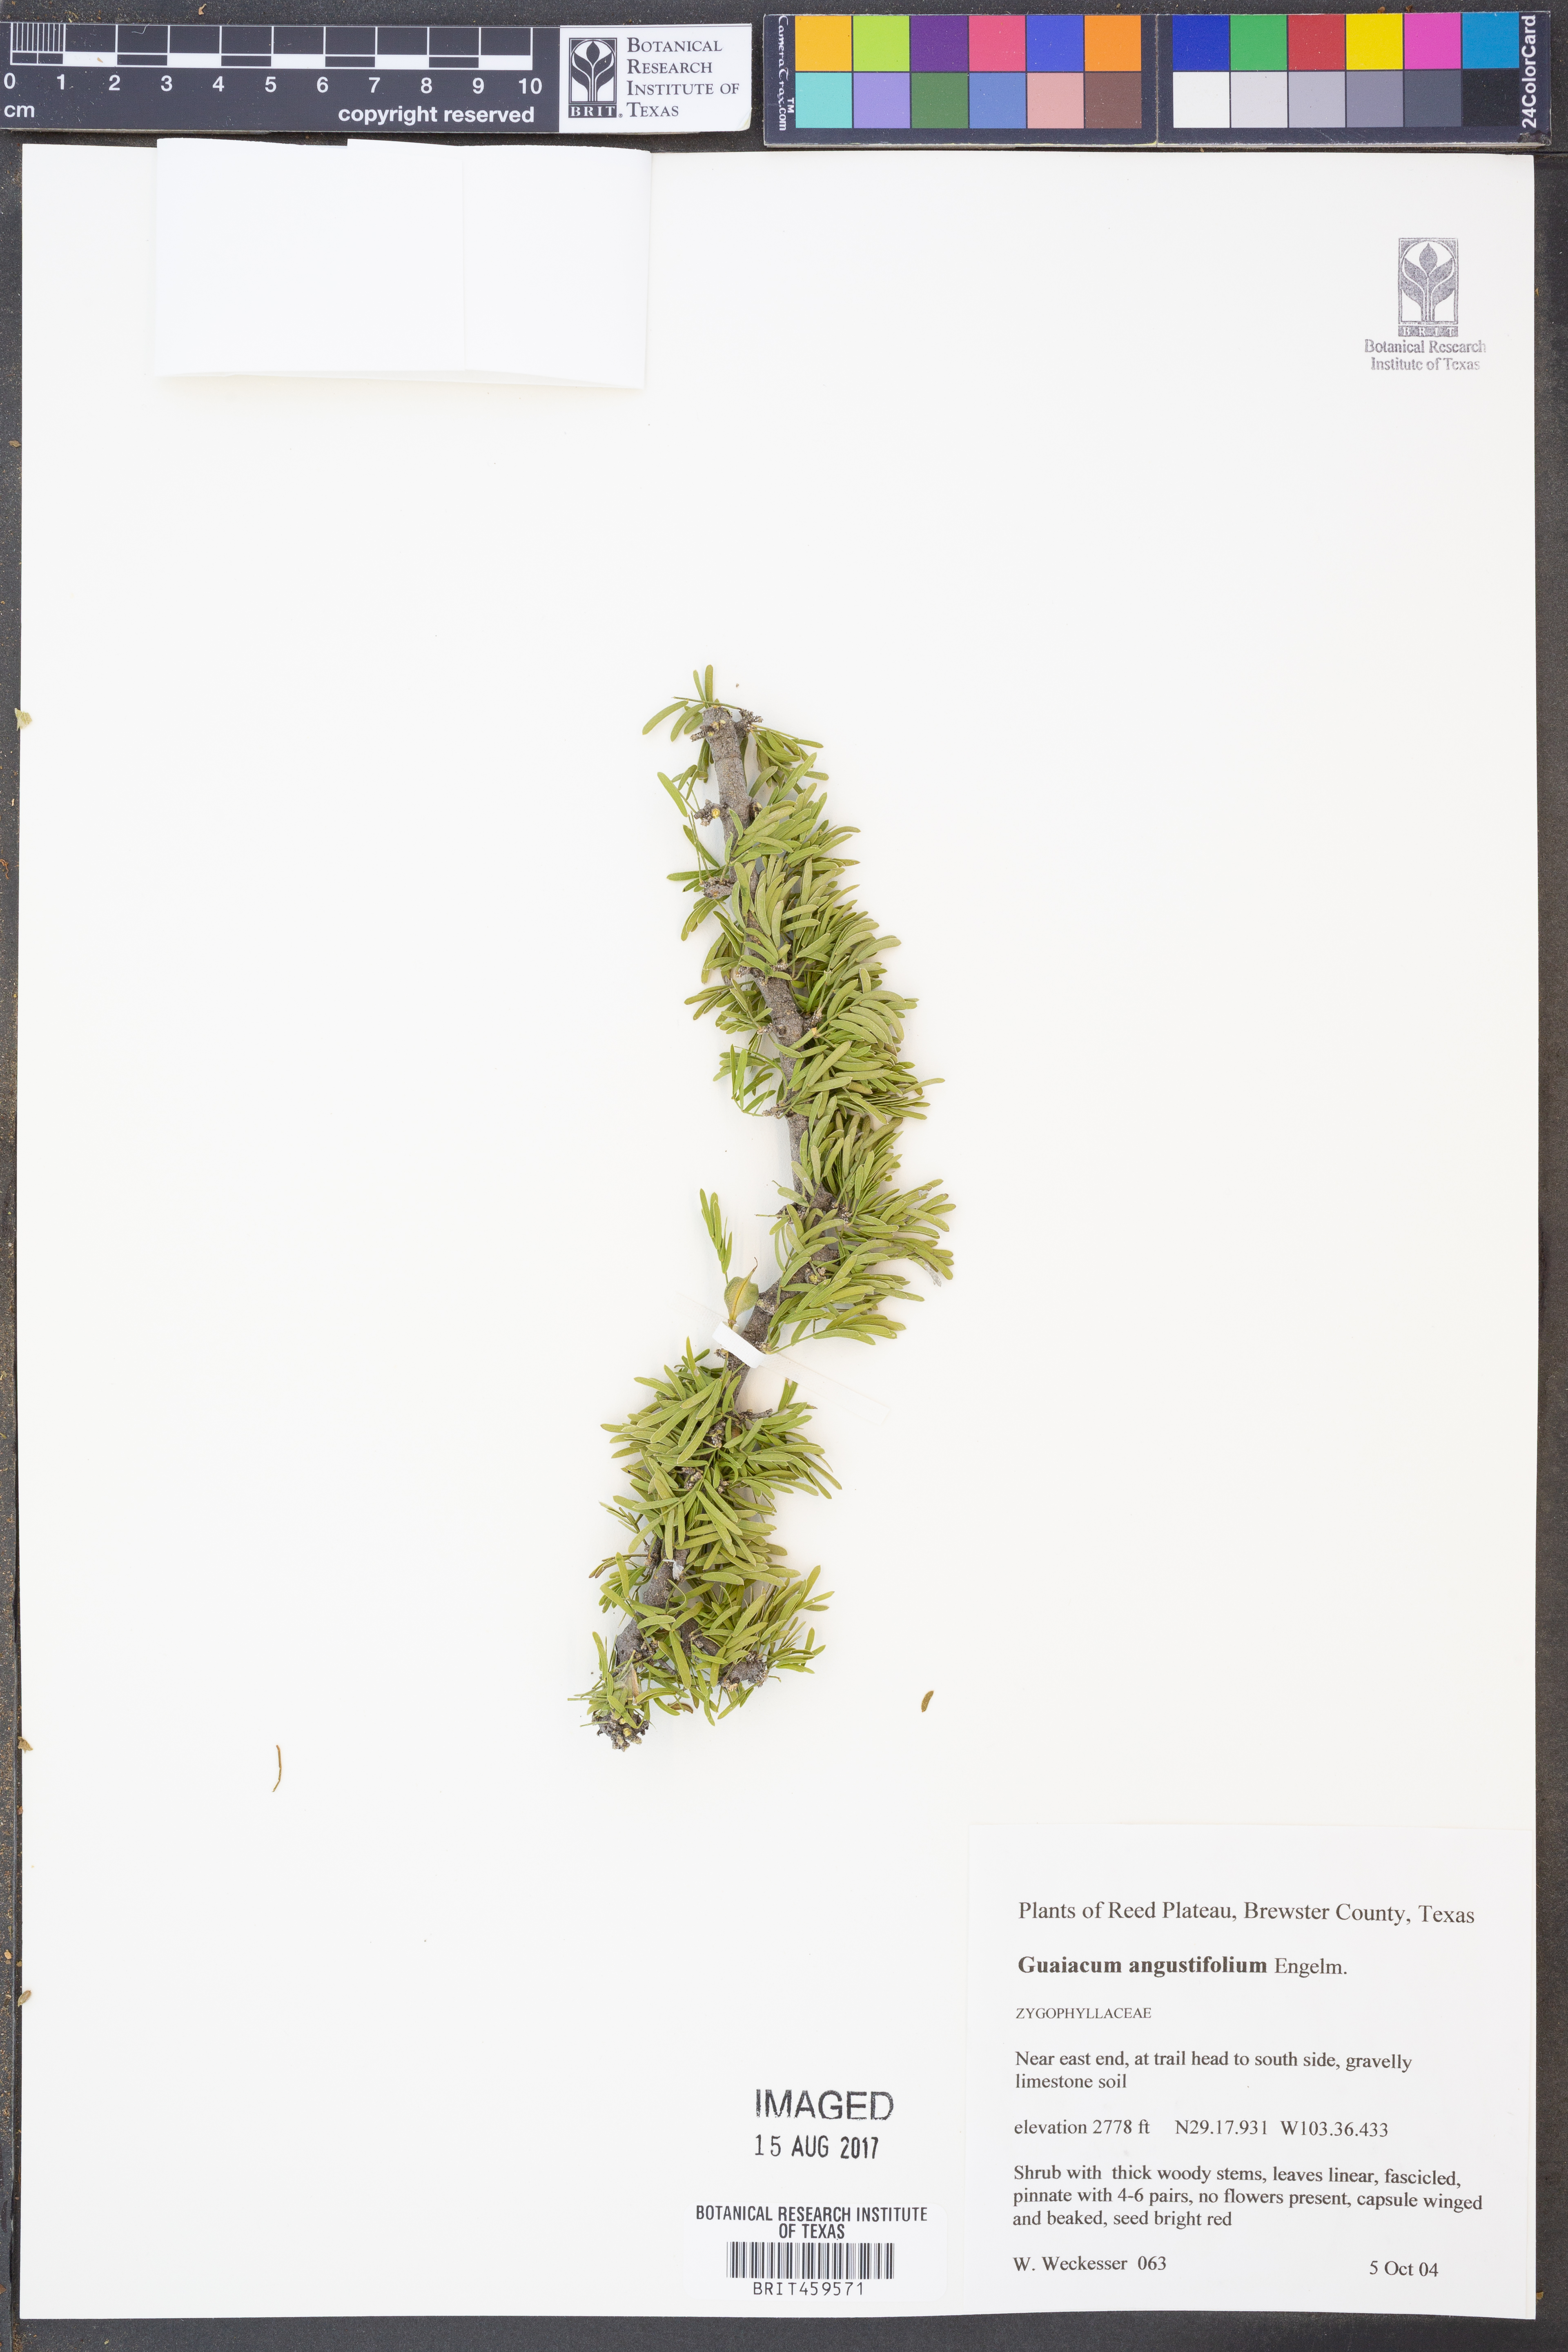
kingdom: Plantae
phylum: Tracheophyta
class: Magnoliopsida
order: Zygophyllales
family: Zygophyllaceae
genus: Porlieria
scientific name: Porlieria angustifolia
